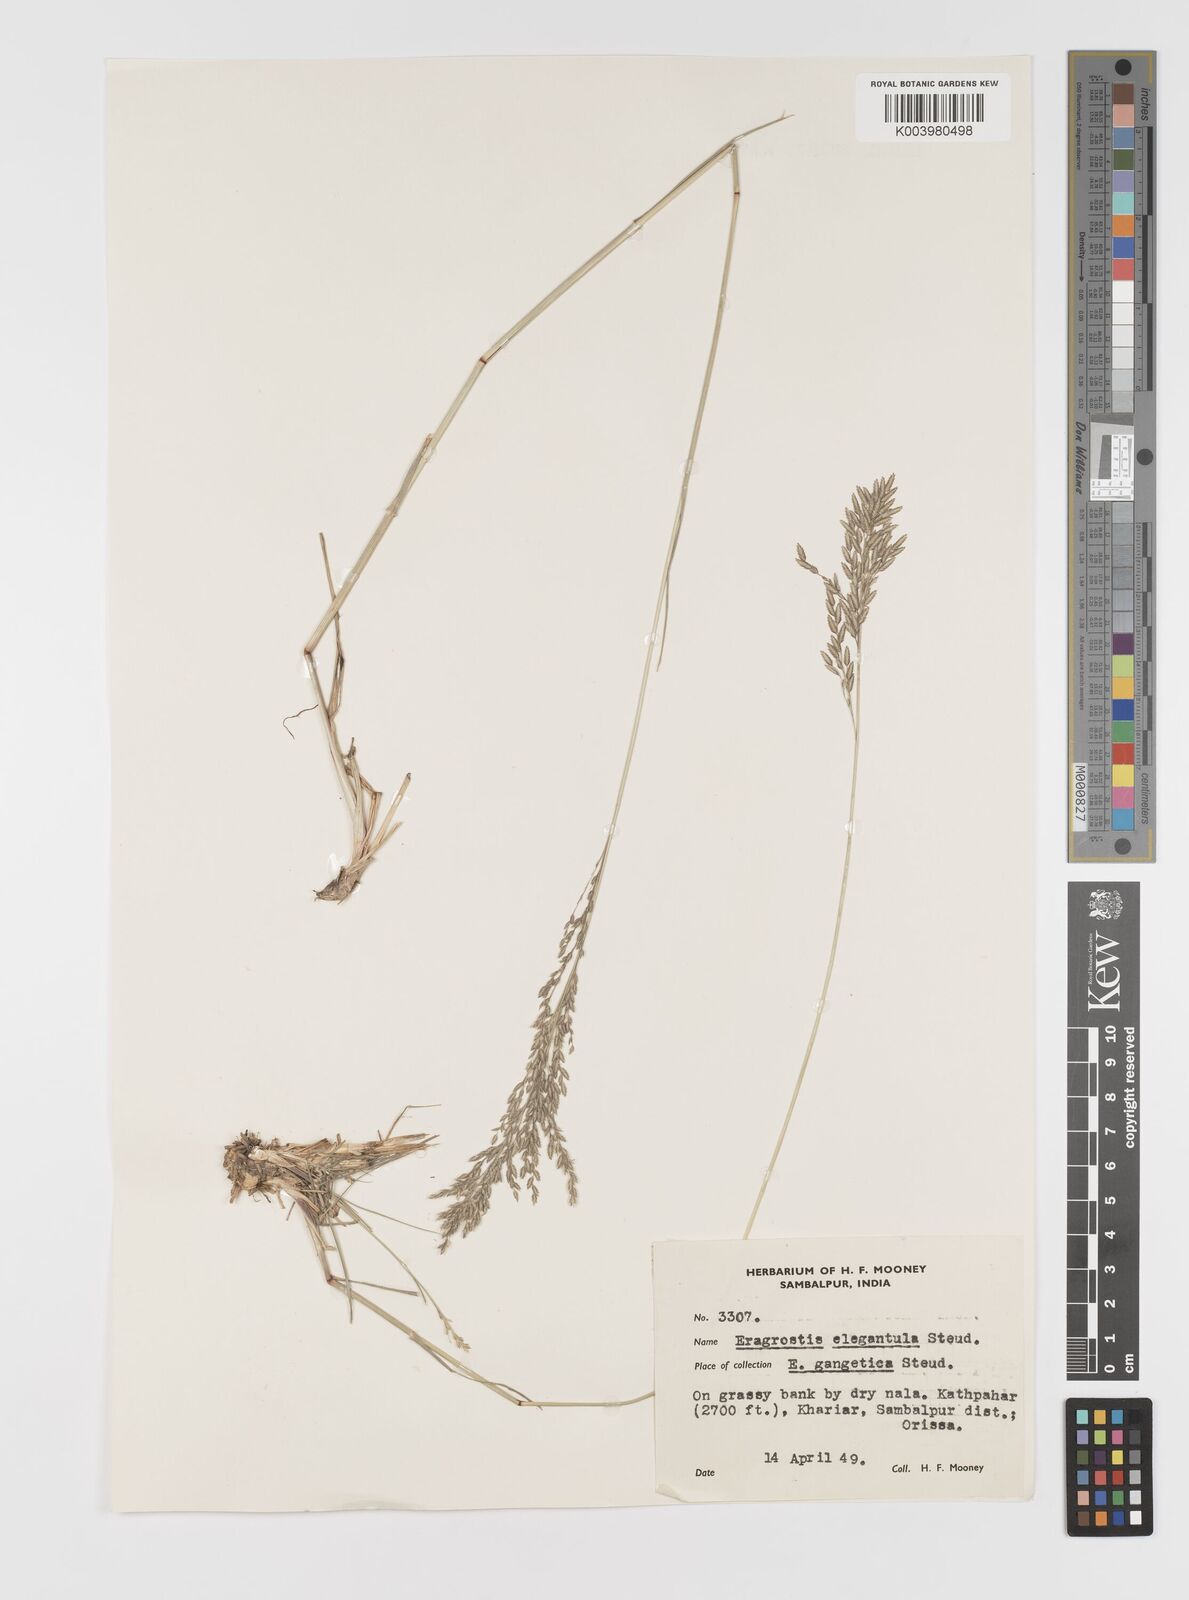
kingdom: Plantae
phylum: Tracheophyta
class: Liliopsida
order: Poales
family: Poaceae
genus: Eragrostis
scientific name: Eragrostis
